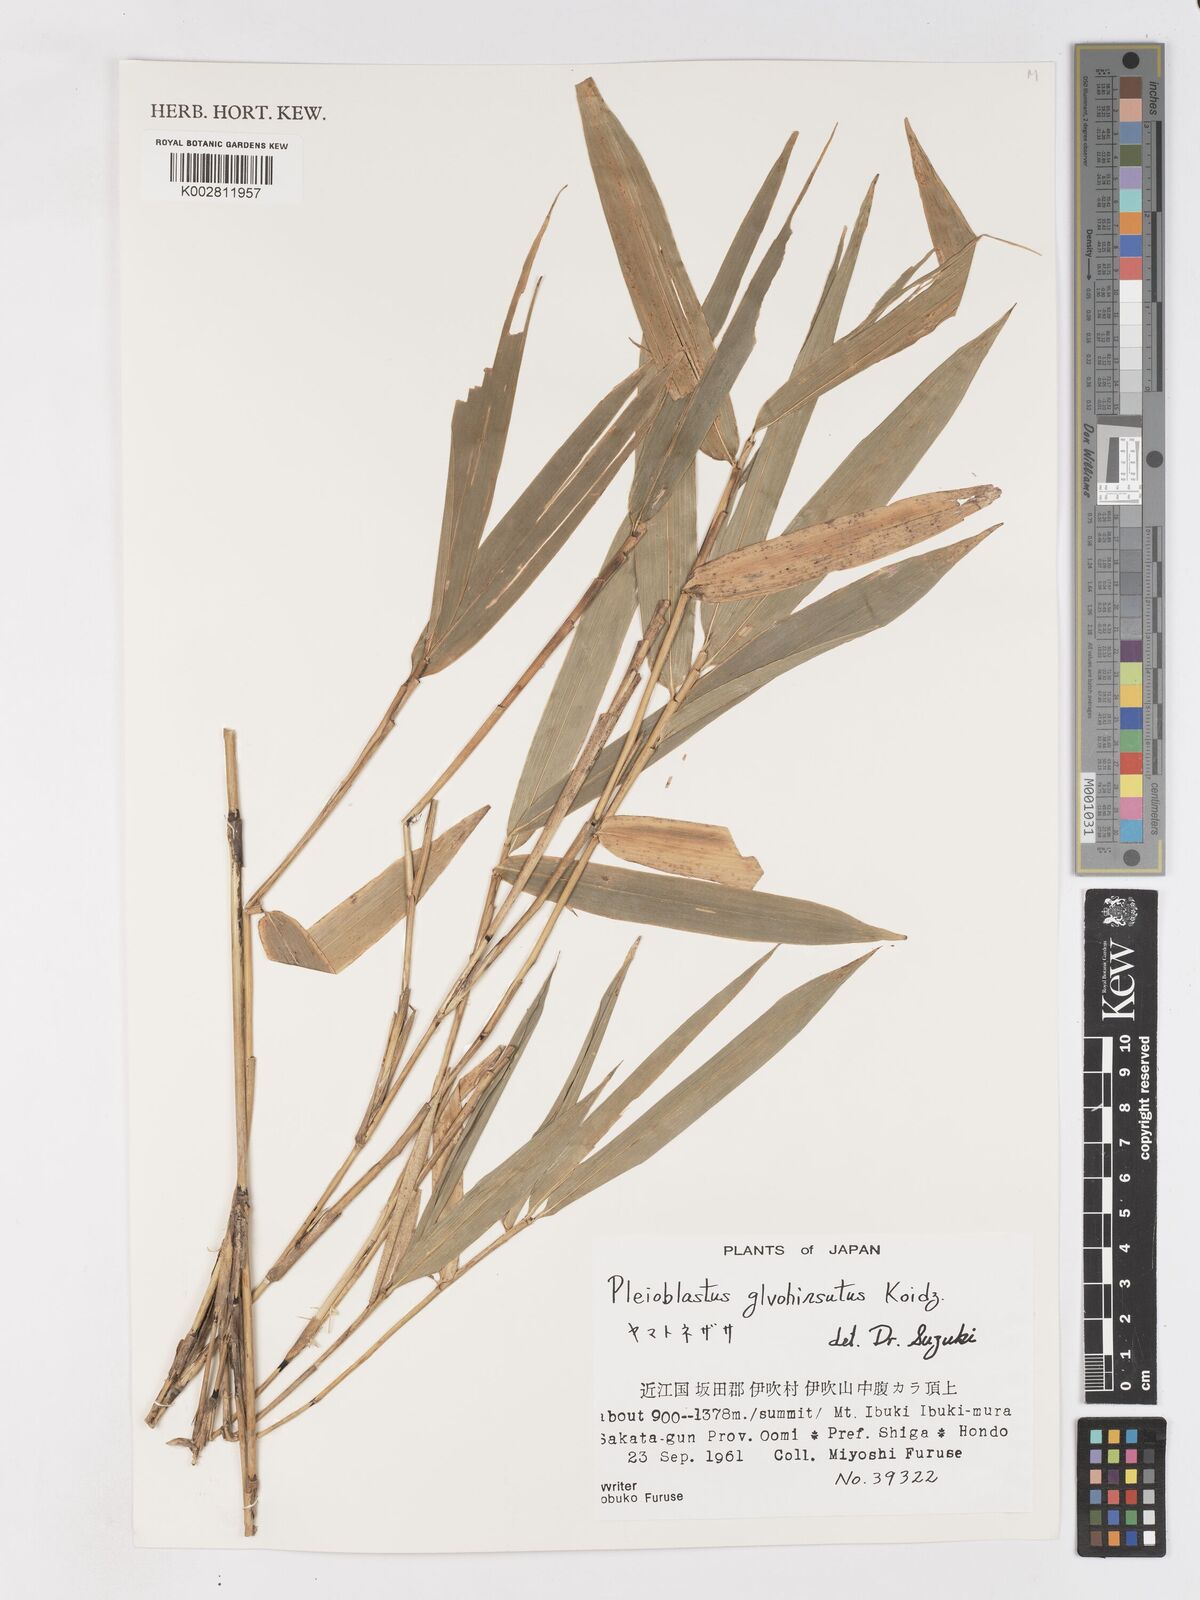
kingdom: Plantae
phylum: Tracheophyta
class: Liliopsida
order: Poales
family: Poaceae
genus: Arundinaria
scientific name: Arundinaria
